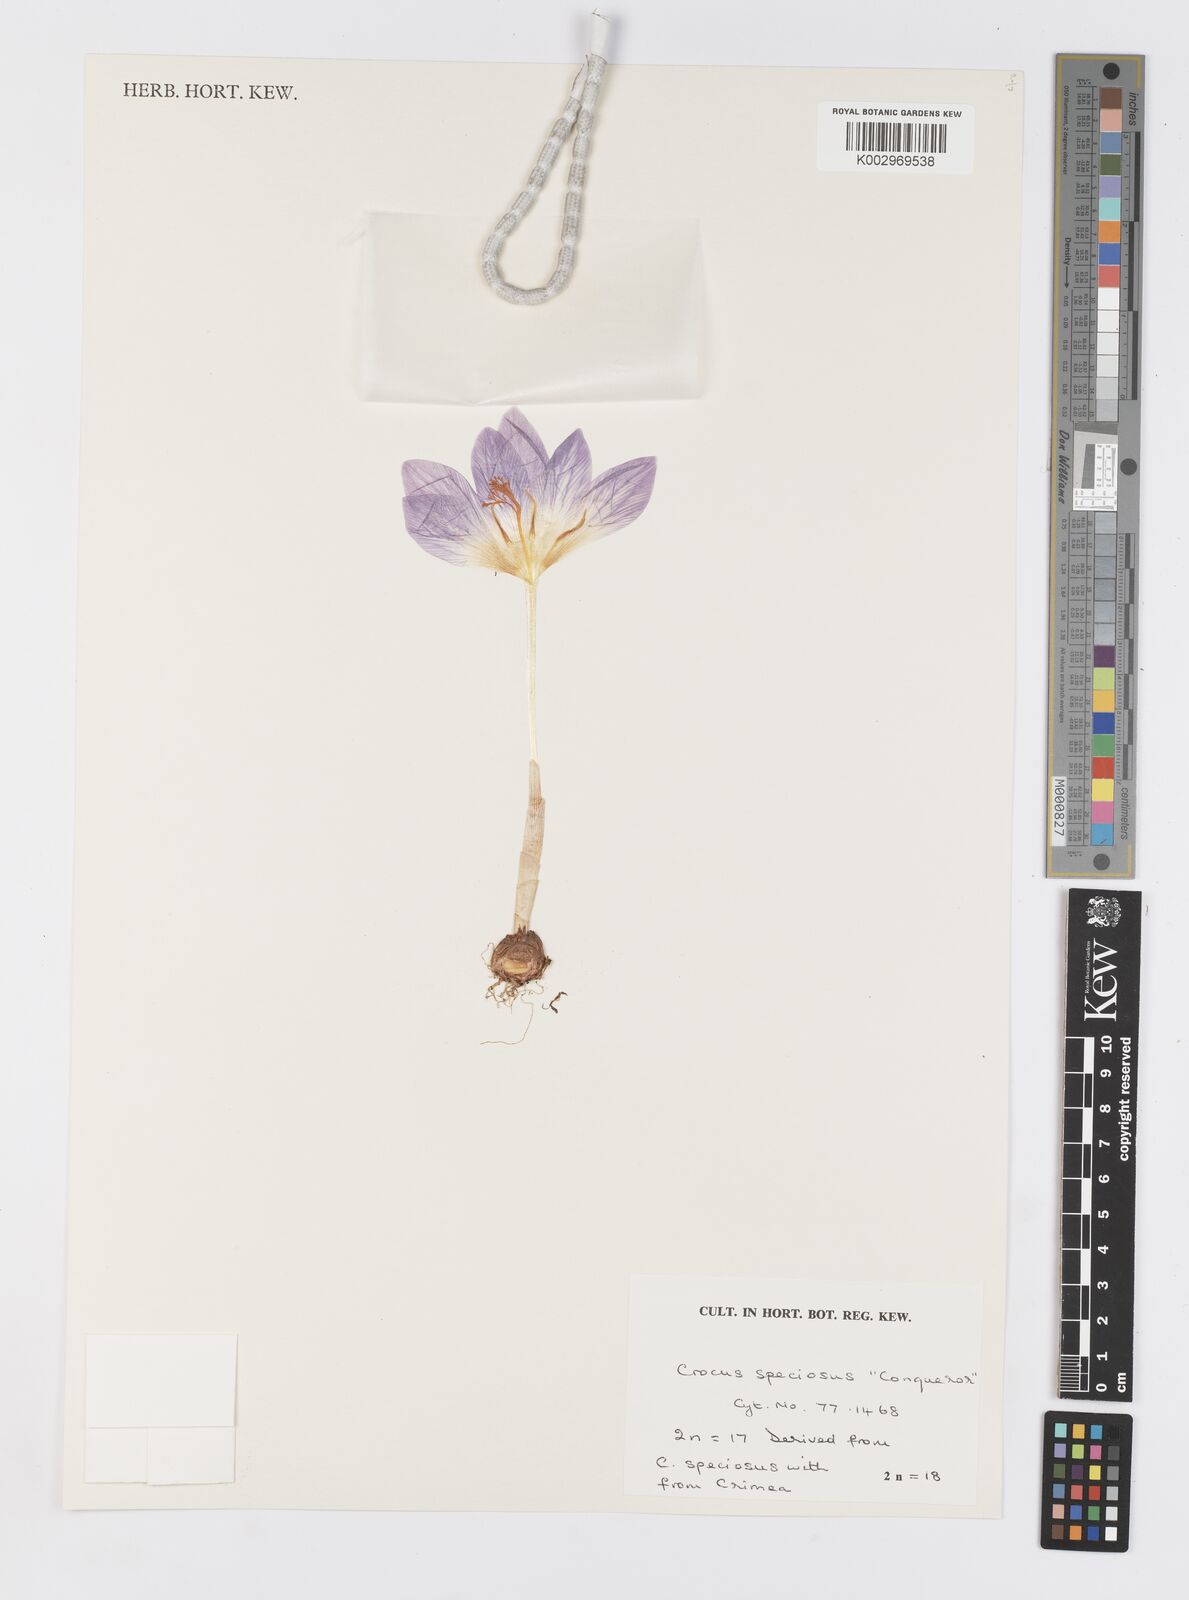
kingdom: Plantae
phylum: Tracheophyta
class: Liliopsida
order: Asparagales
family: Iridaceae
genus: Crocus
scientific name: Crocus speciosus
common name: Bieberstein's crocus
